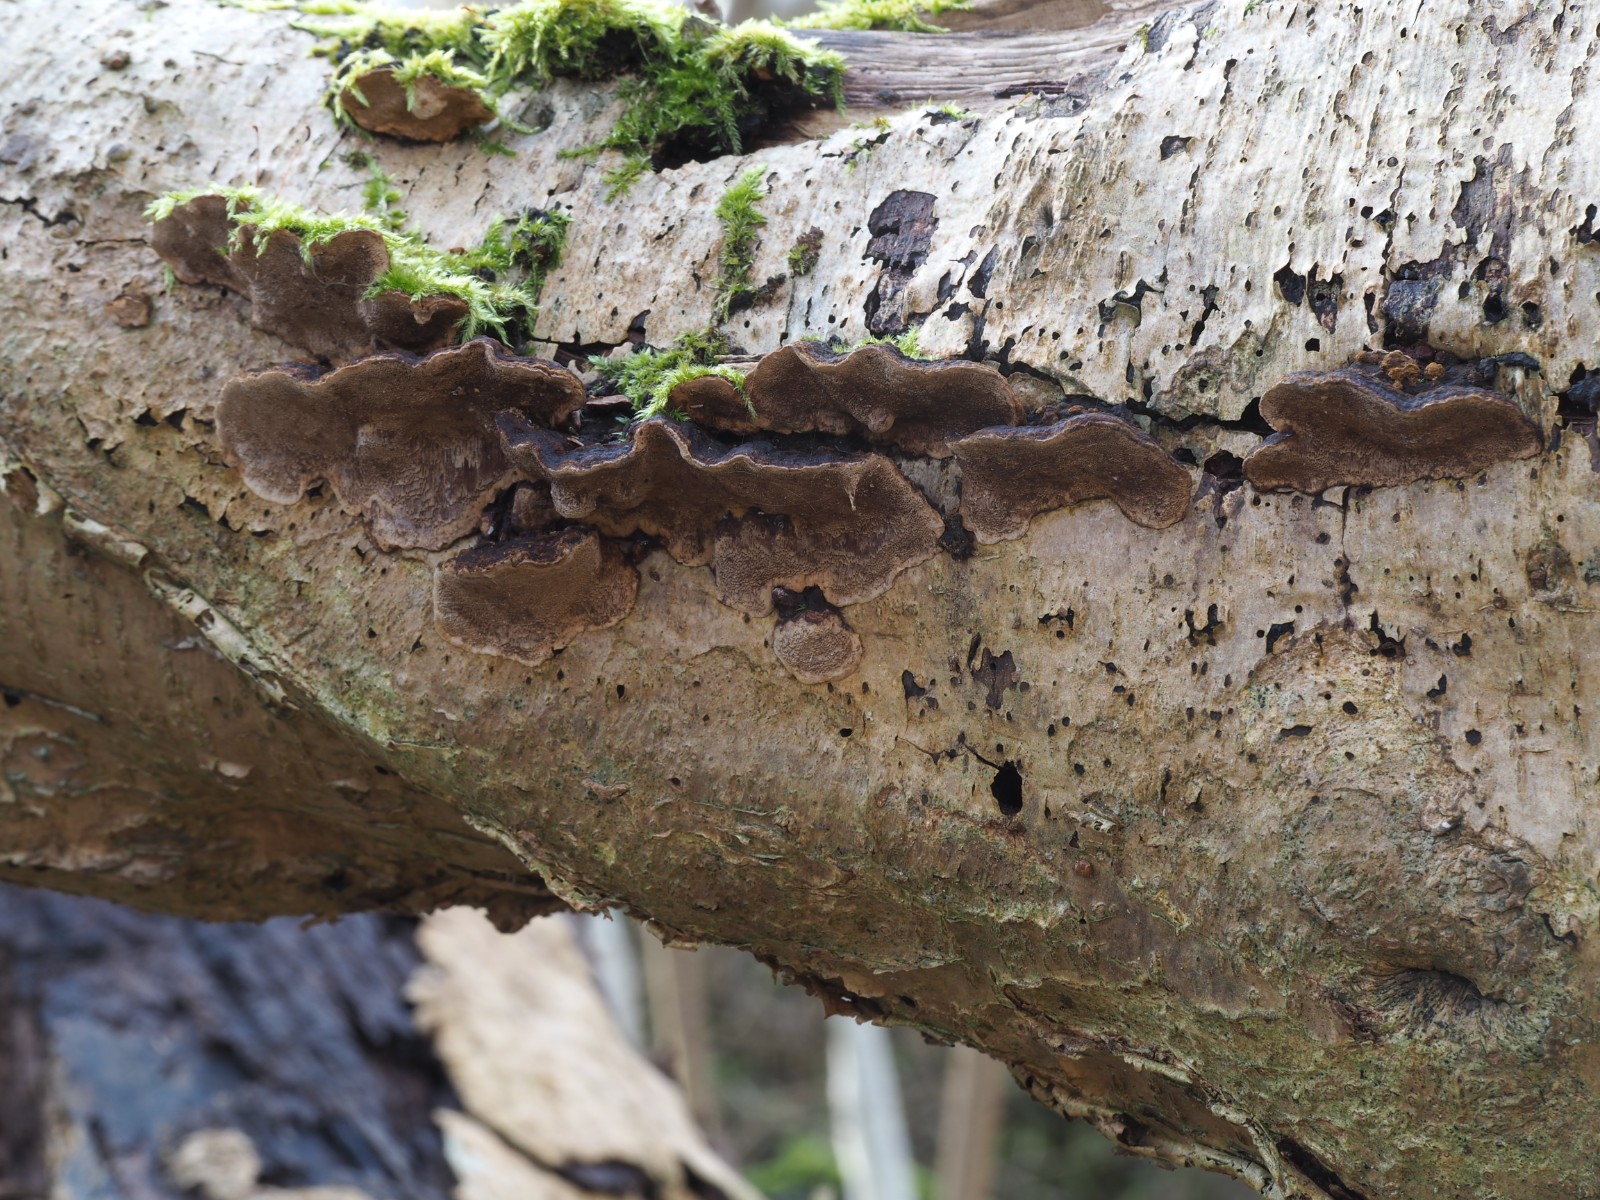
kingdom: Fungi
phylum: Basidiomycota
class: Agaricomycetes
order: Hymenochaetales
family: Hymenochaetaceae
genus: Phellinopsis
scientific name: Phellinopsis conchata
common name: pile-ildporesvamp
